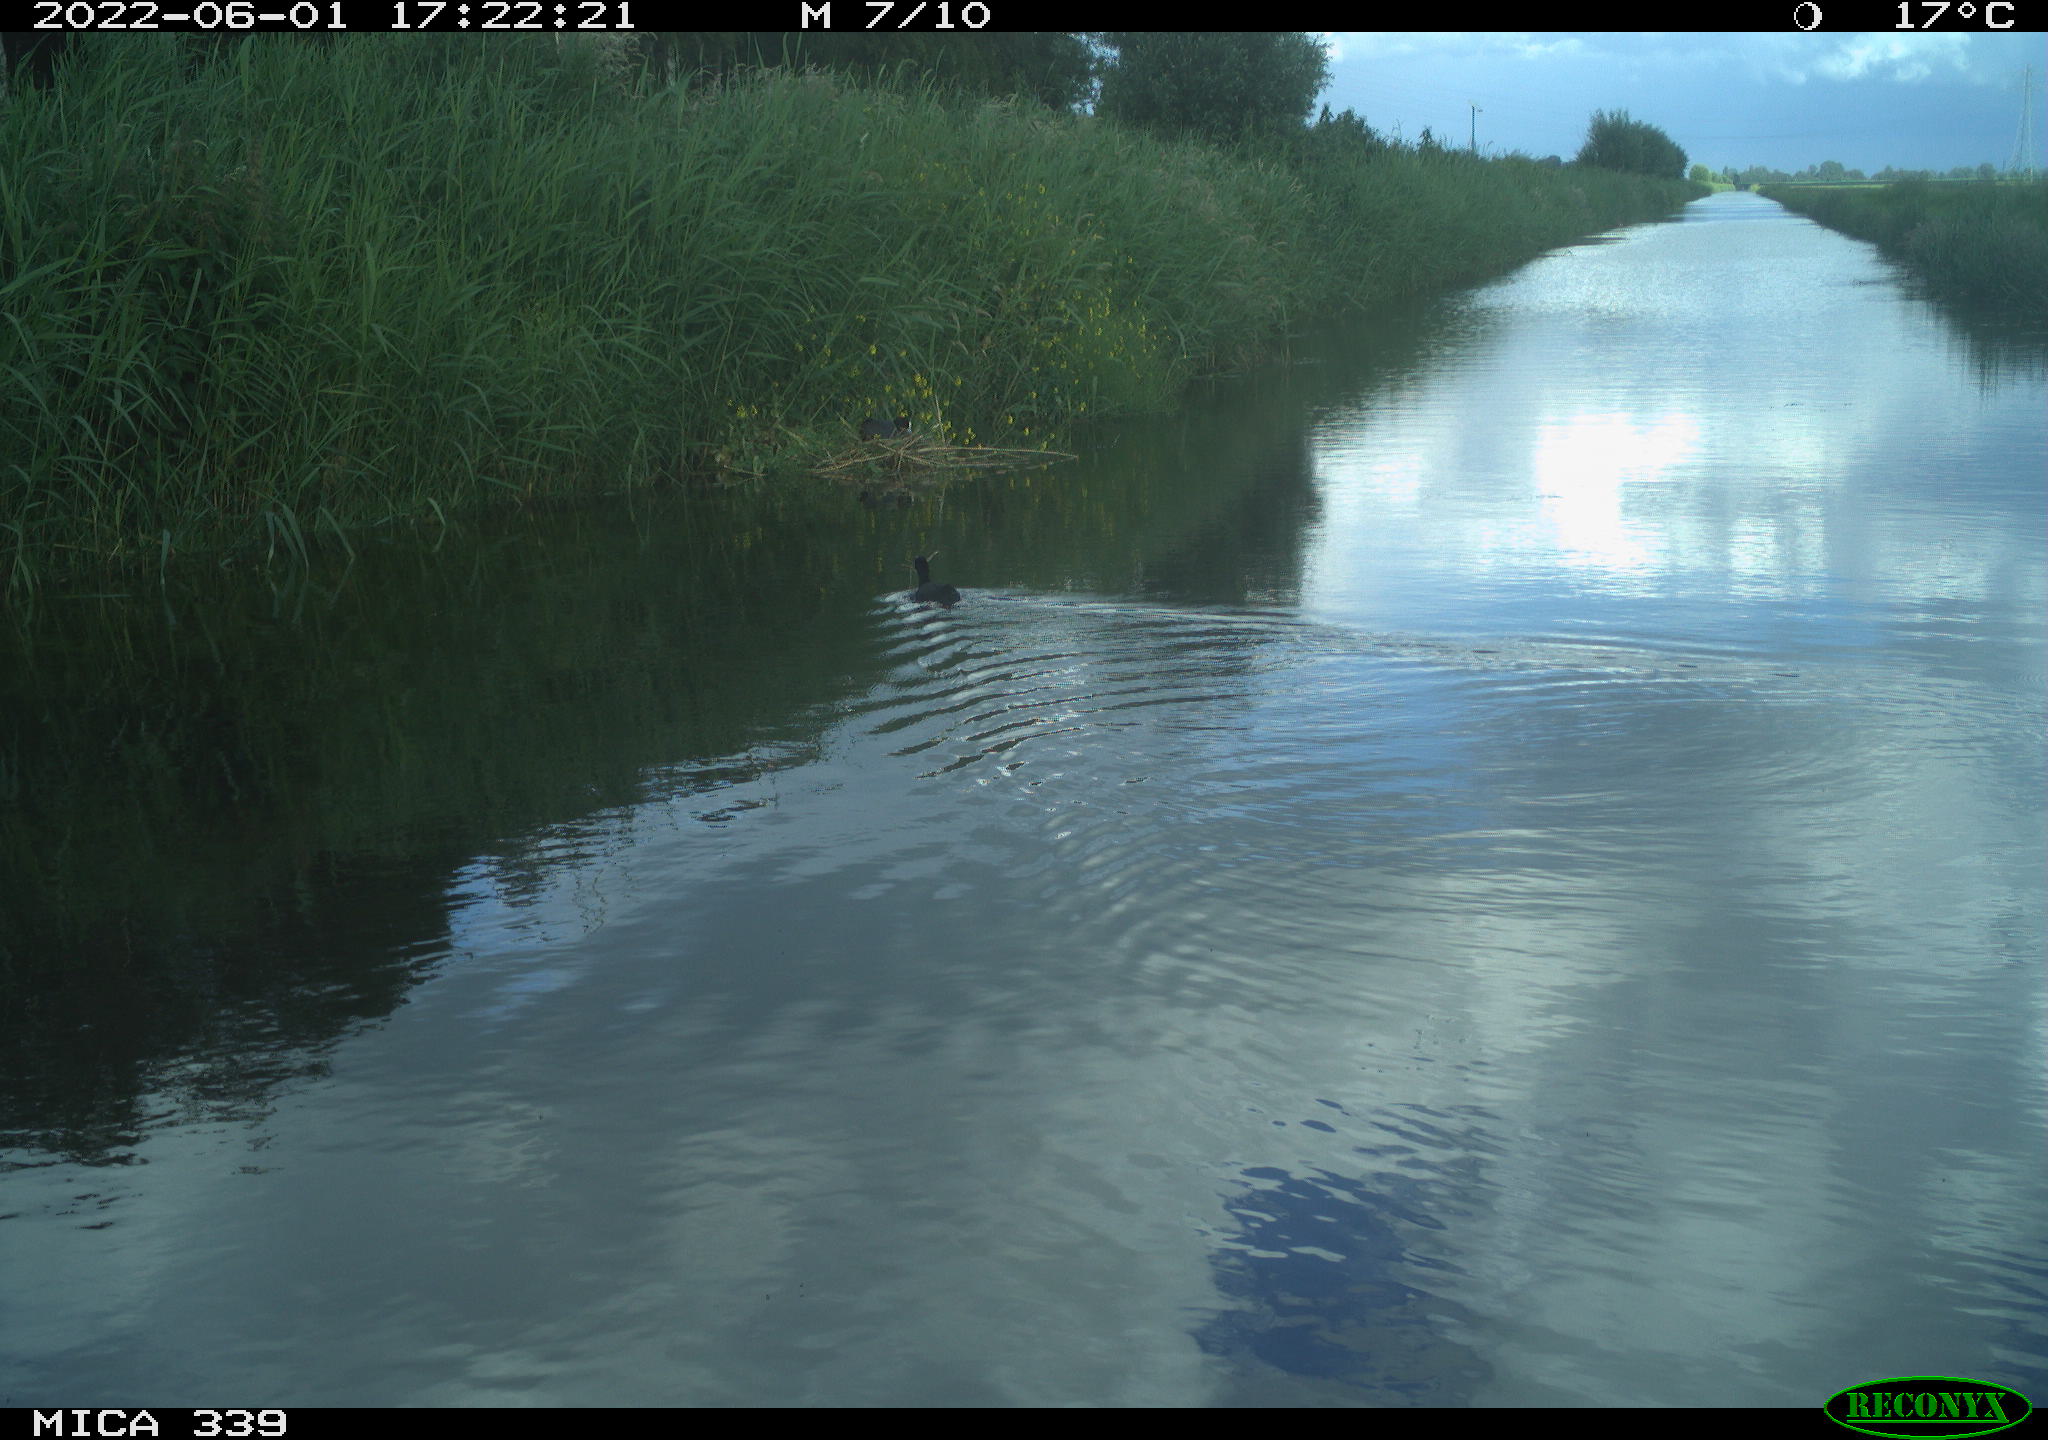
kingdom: Animalia
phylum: Chordata
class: Aves
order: Gruiformes
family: Rallidae
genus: Fulica
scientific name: Fulica atra
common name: Eurasian coot
